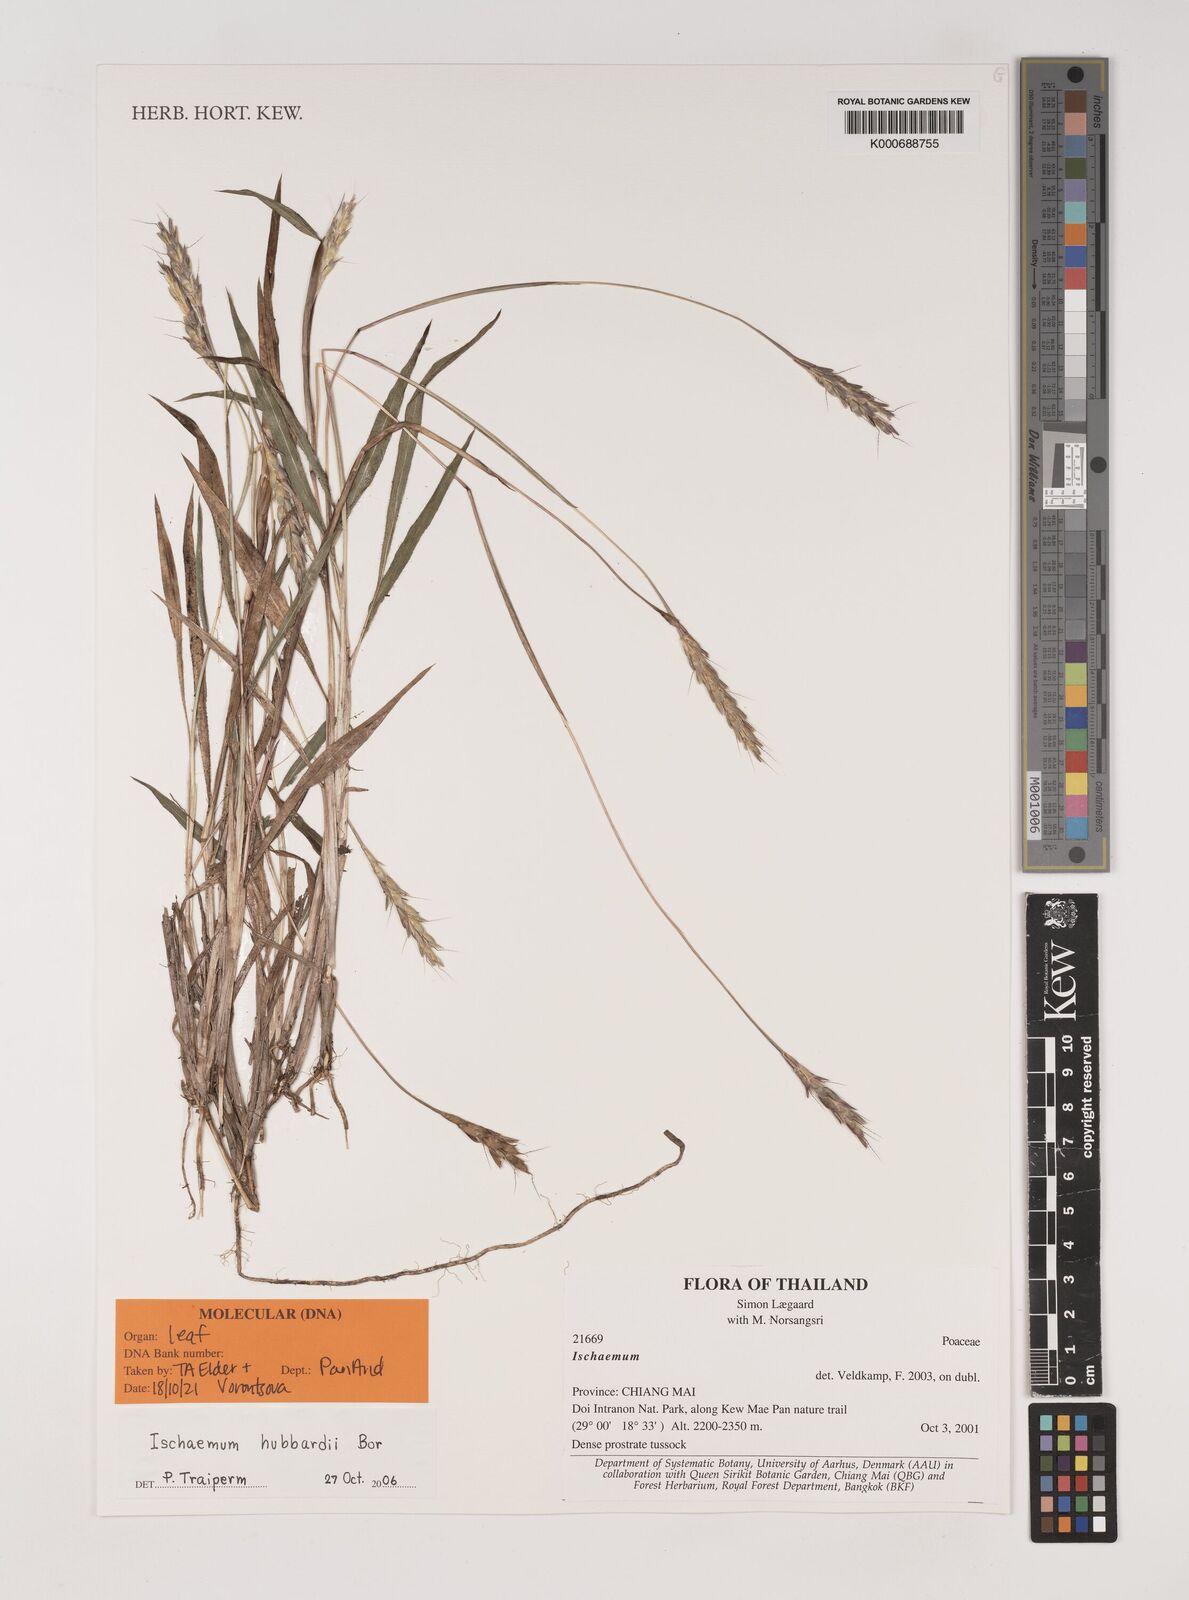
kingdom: Plantae
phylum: Tracheophyta
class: Liliopsida
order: Poales
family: Poaceae
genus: Ischaemum
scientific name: Ischaemum hubbardii
